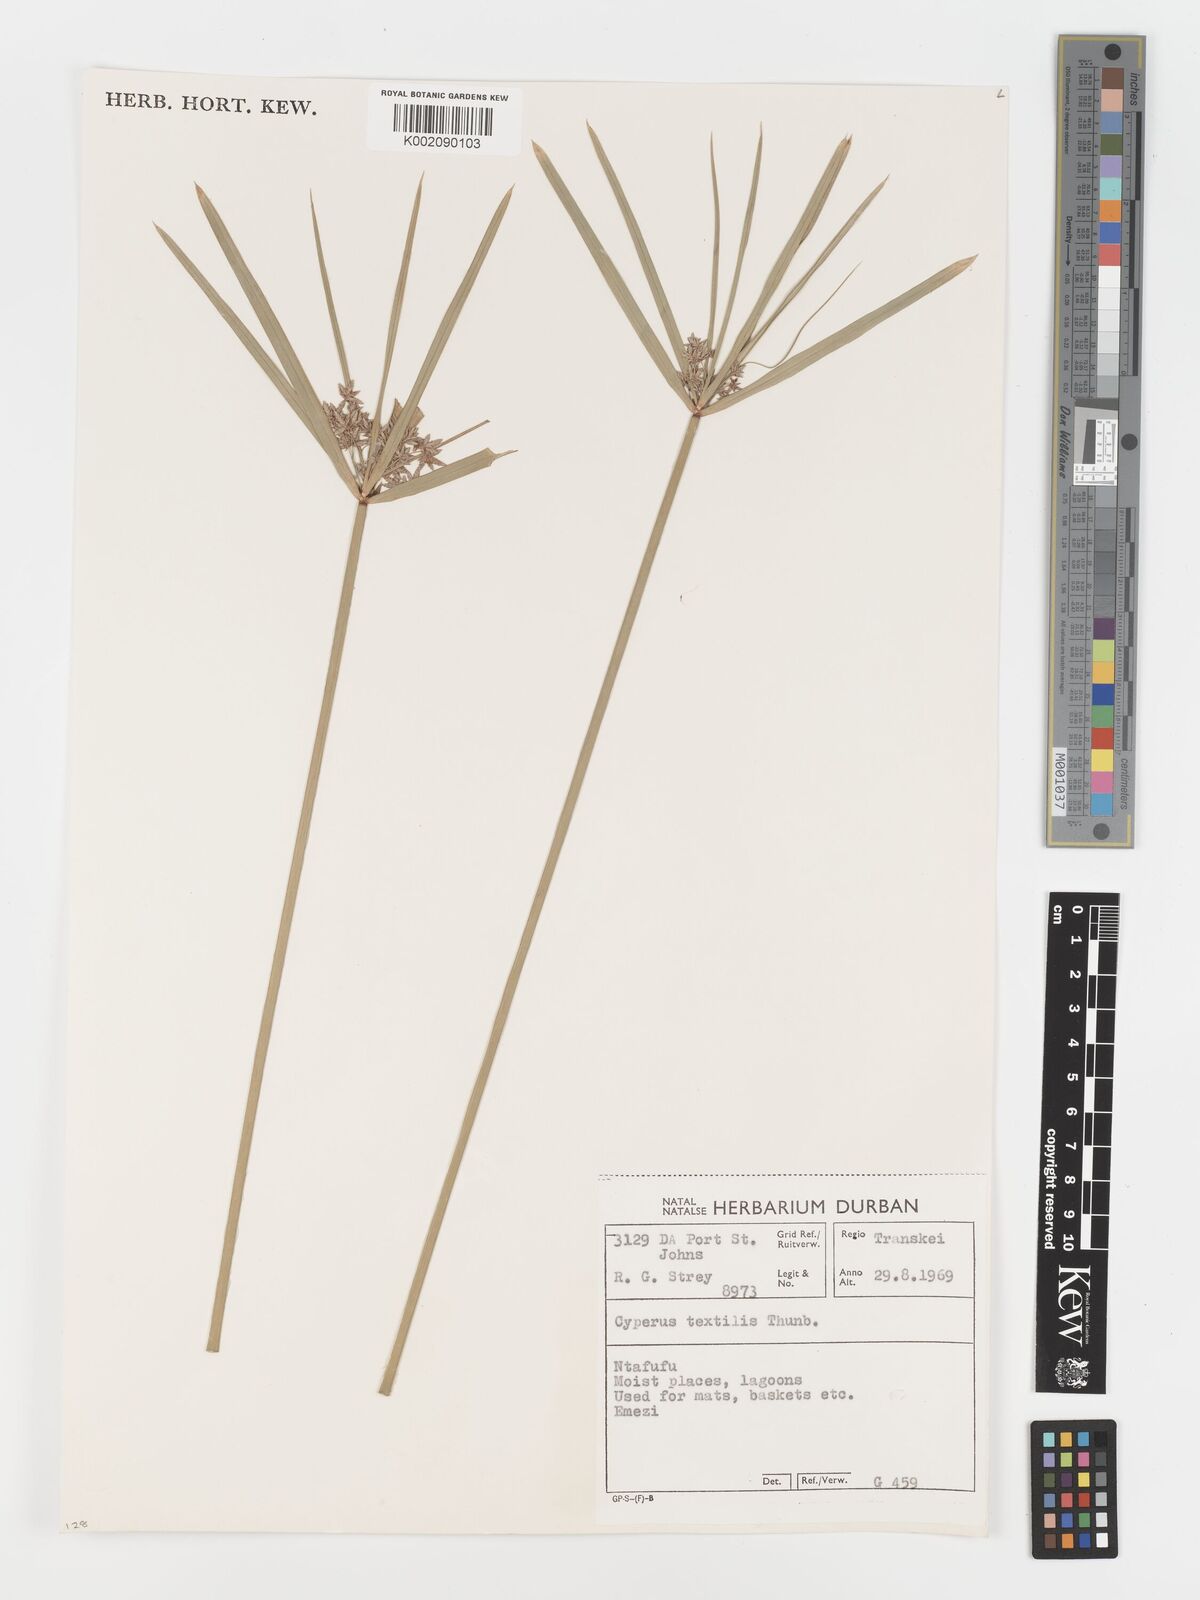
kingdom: Plantae
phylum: Tracheophyta
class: Liliopsida
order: Poales
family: Cyperaceae
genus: Cyperus
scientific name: Cyperus alternifolius
